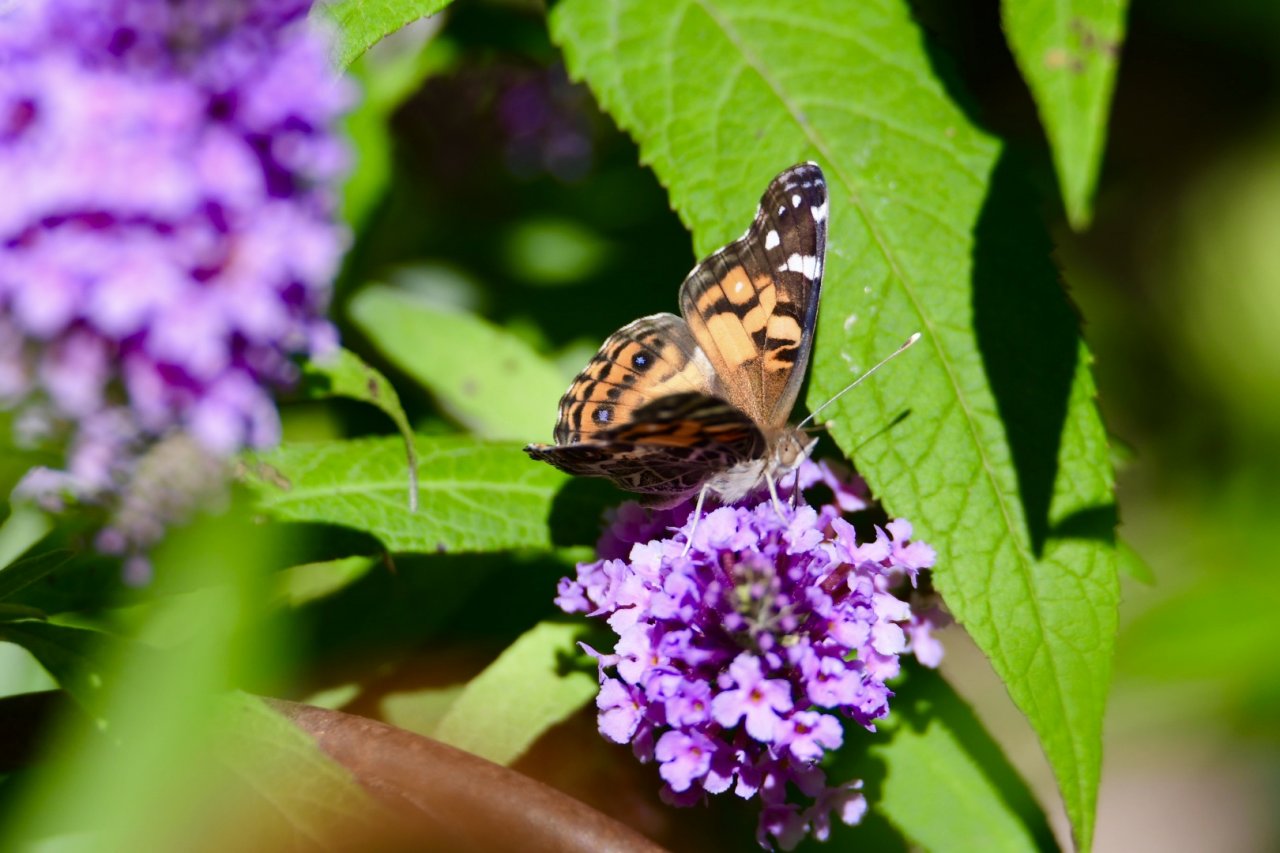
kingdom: Animalia
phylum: Arthropoda
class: Insecta
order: Lepidoptera
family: Nymphalidae
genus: Vanessa
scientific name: Vanessa virginiensis
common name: American Lady
